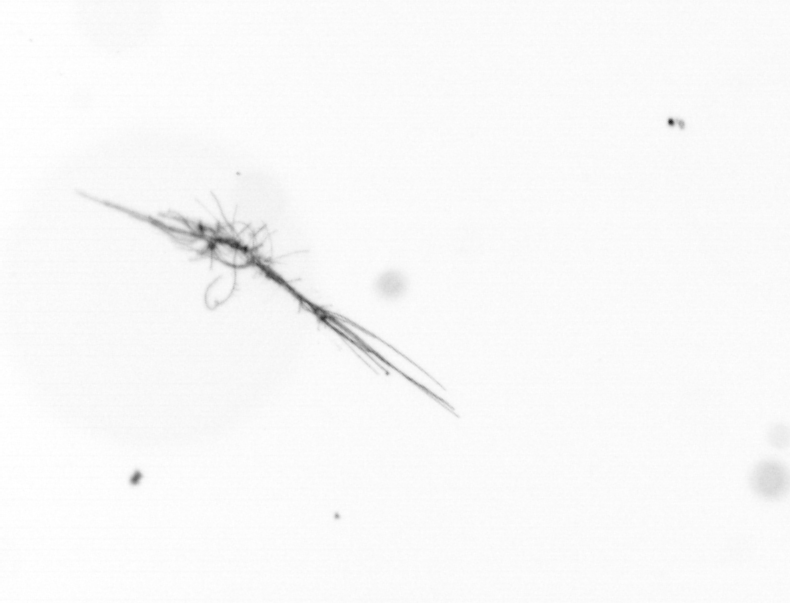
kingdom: Chromista
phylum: Ochrophyta
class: Bacillariophyceae
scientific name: Bacillariophyceae
